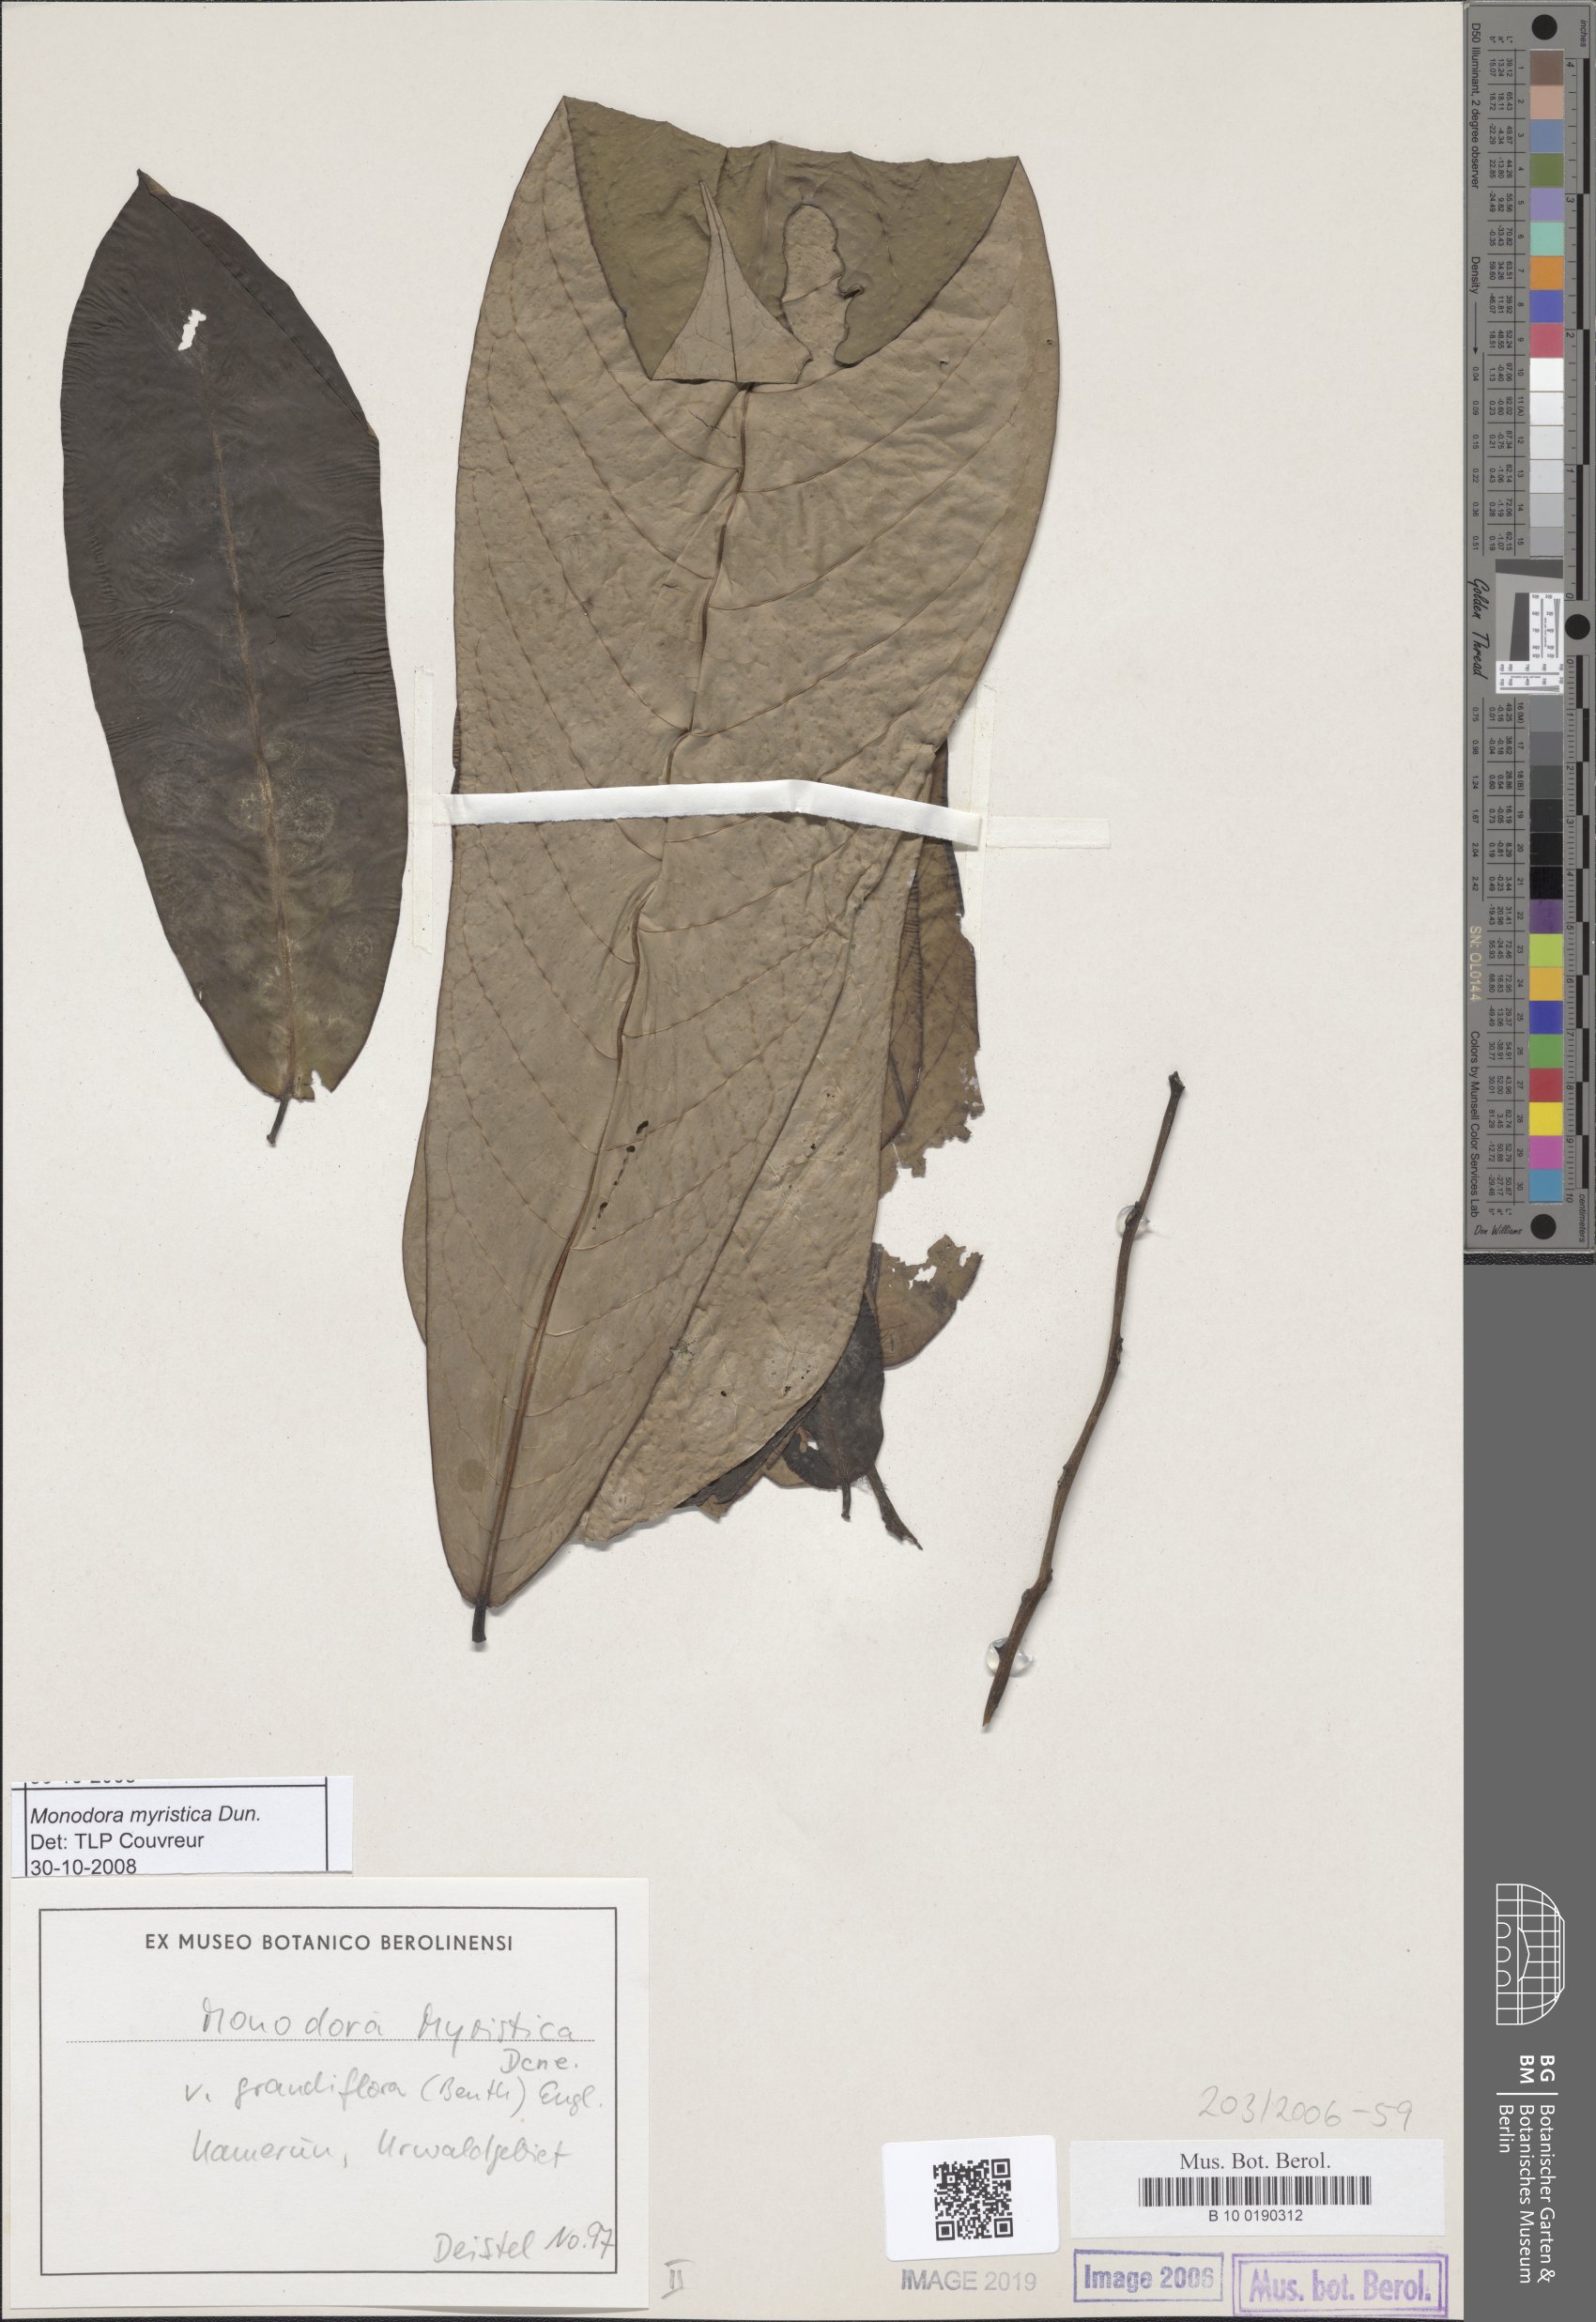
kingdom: Plantae
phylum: Tracheophyta
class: Magnoliopsida
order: Magnoliales
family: Annonaceae
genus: Monodora
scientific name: Monodora myristica
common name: African nutmeg
